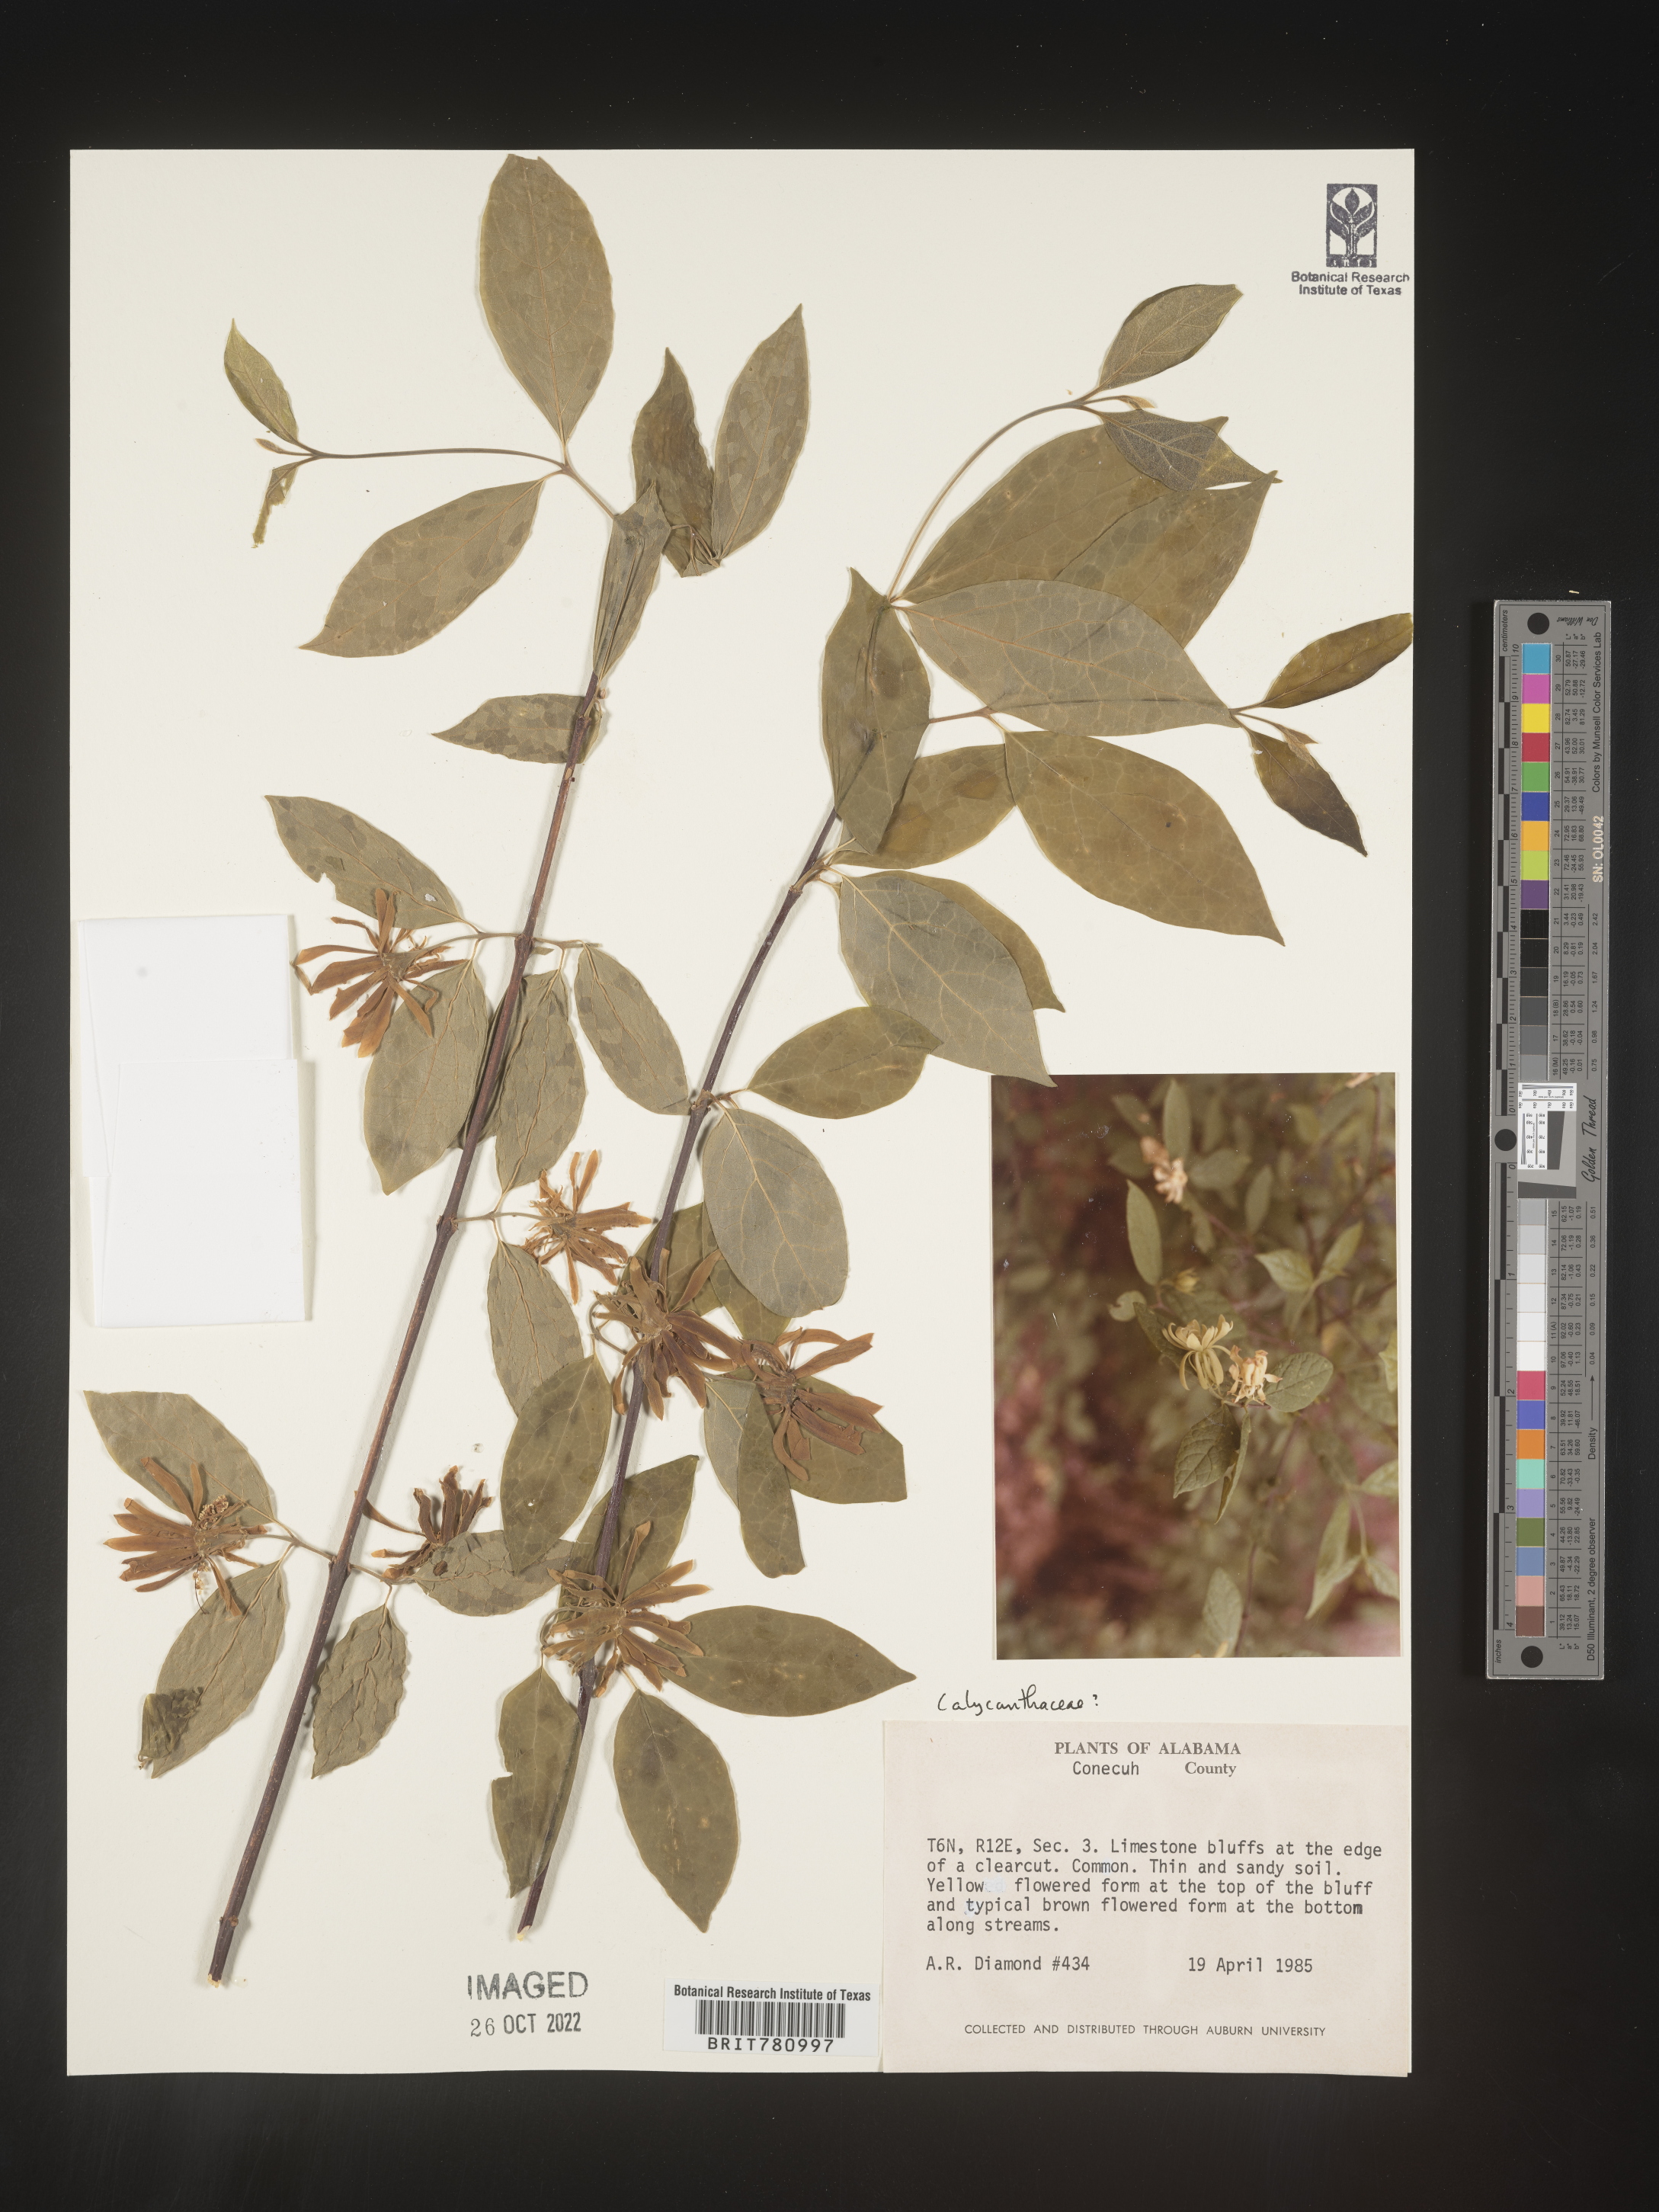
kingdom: Plantae
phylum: Tracheophyta
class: Magnoliopsida
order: Laurales
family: Calycanthaceae
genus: Calycanthus
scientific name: Calycanthus
